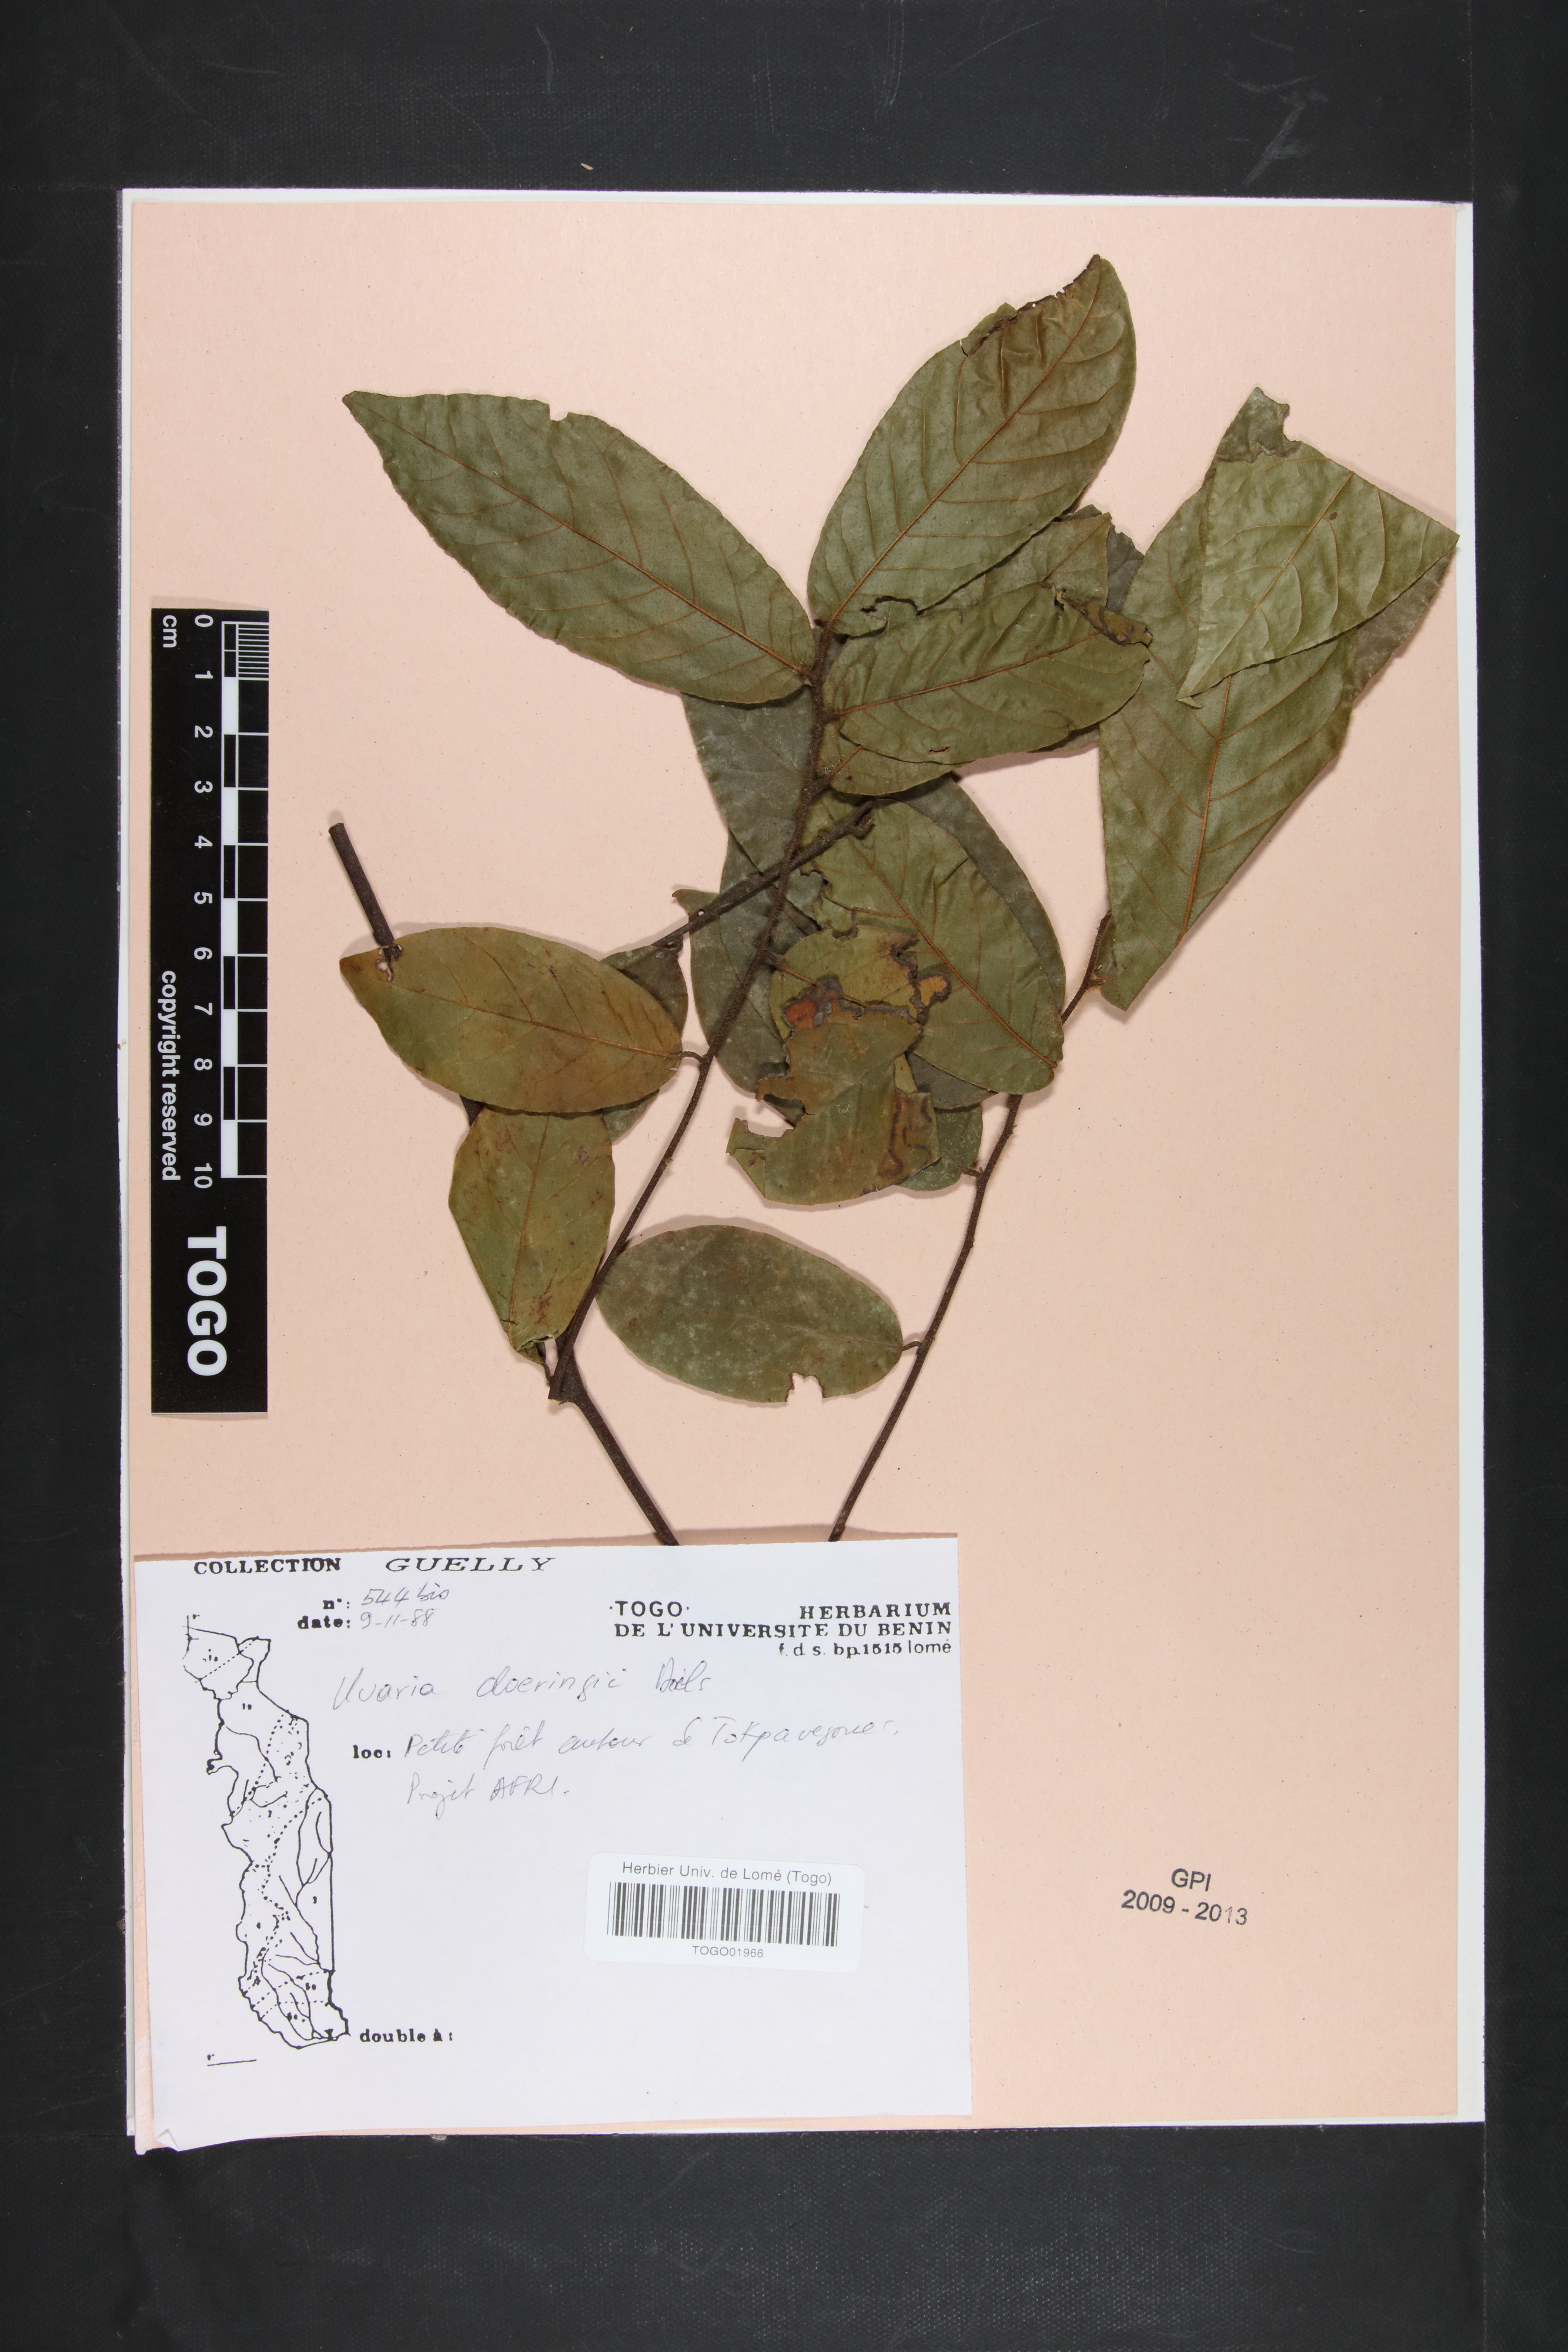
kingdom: Plantae
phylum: Tracheophyta
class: Magnoliopsida
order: Magnoliales
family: Annonaceae
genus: Uvaria
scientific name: Uvaria doeringii
